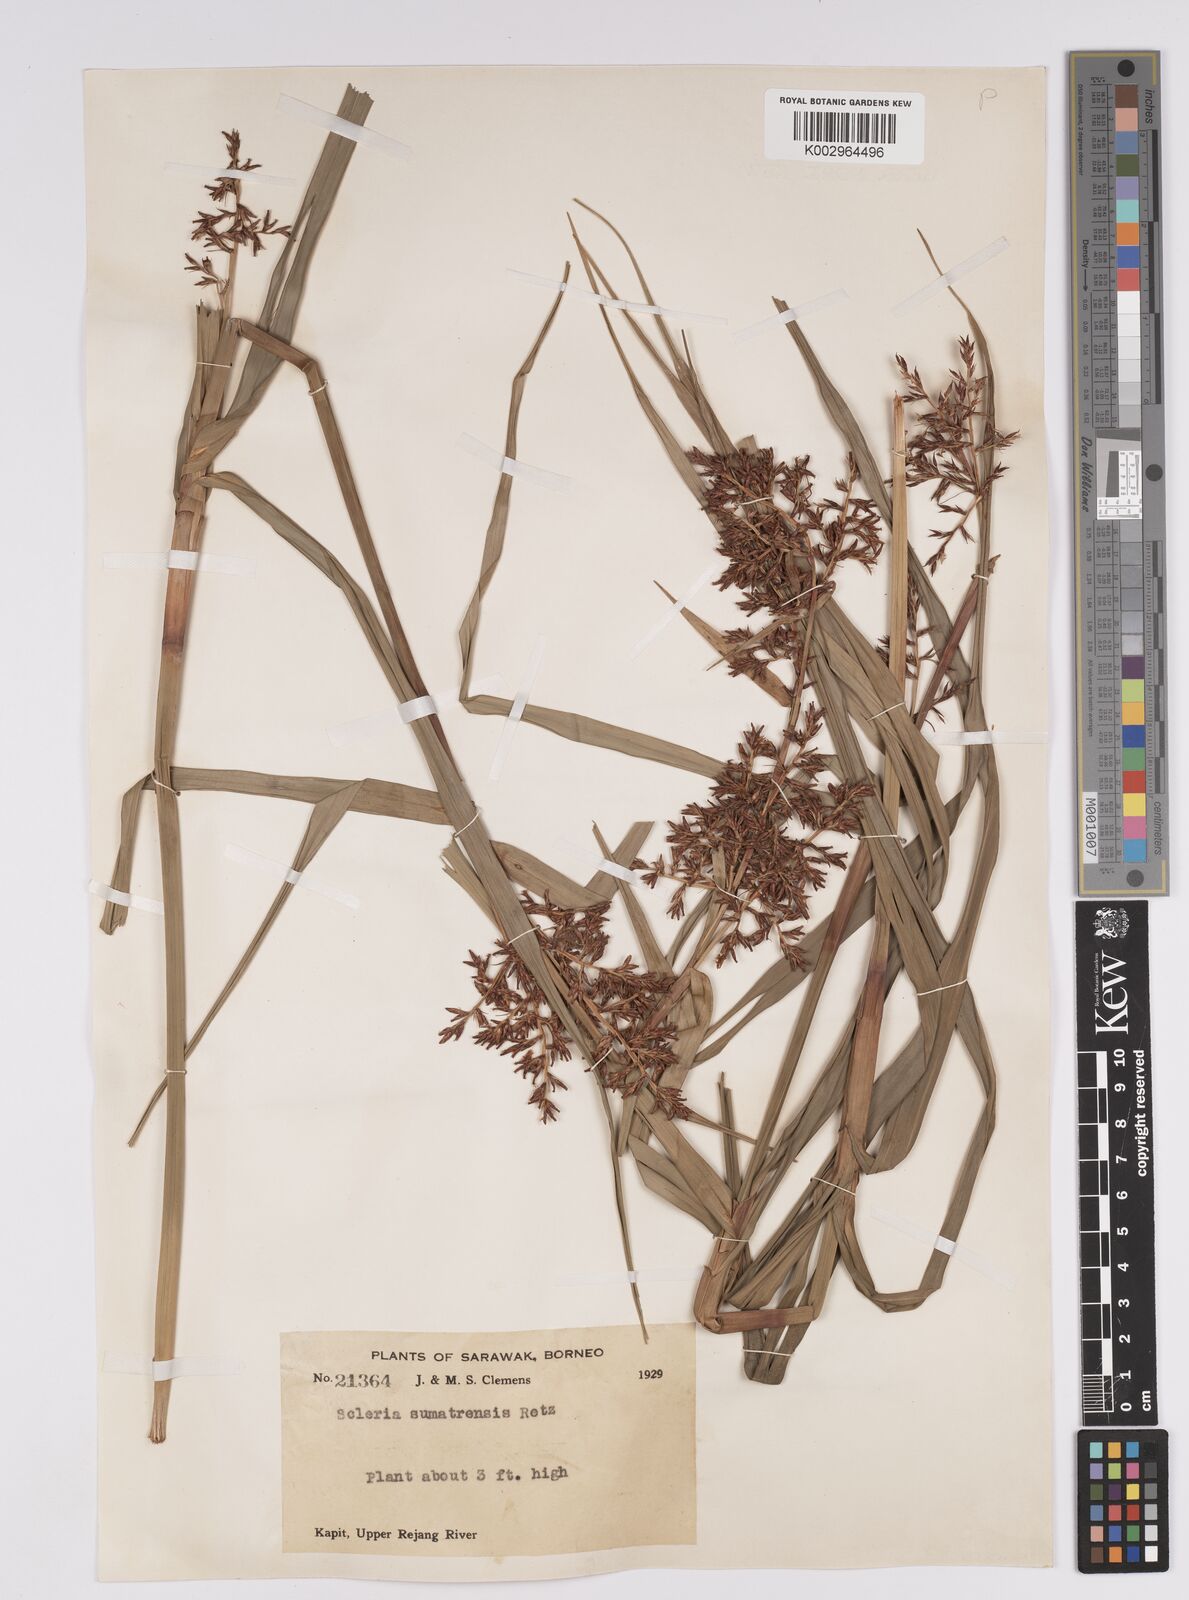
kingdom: Plantae
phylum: Tracheophyta
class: Liliopsida
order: Poales
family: Cyperaceae
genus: Scleria
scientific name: Scleria sumatrensis
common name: Sumatran scleria
